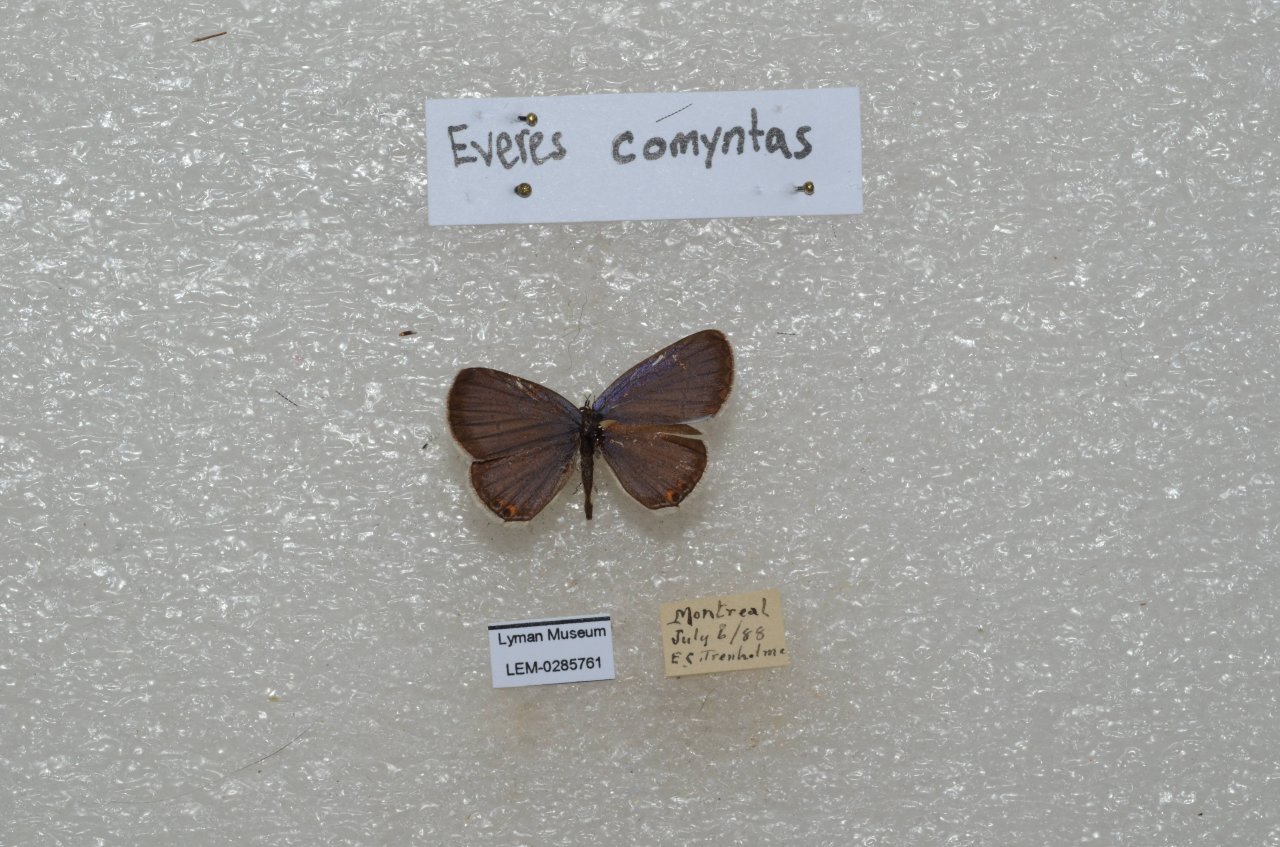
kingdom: Animalia
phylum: Arthropoda
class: Insecta
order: Lepidoptera
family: Lycaenidae
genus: Elkalyce
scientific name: Elkalyce comyntas
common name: Eastern Tailed-Blue
